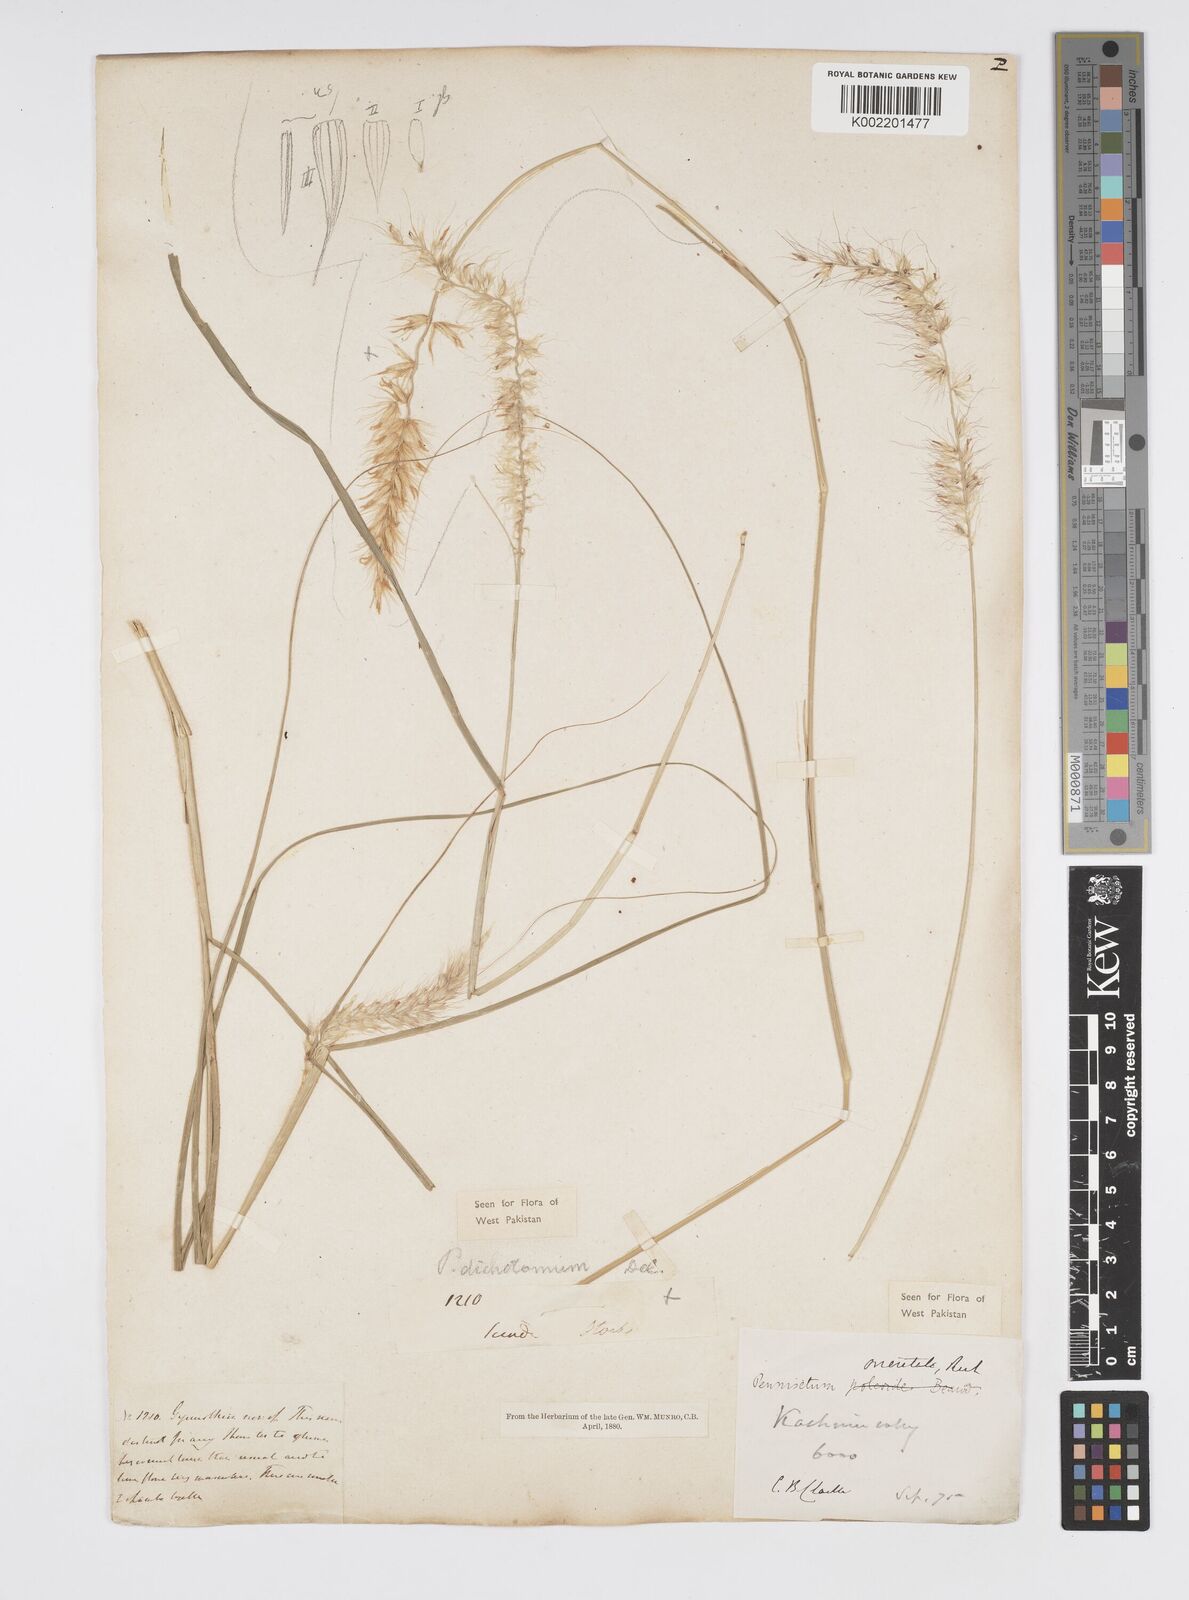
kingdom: Plantae
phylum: Tracheophyta
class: Liliopsida
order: Poales
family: Poaceae
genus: Cenchrus
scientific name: Cenchrus divisus
